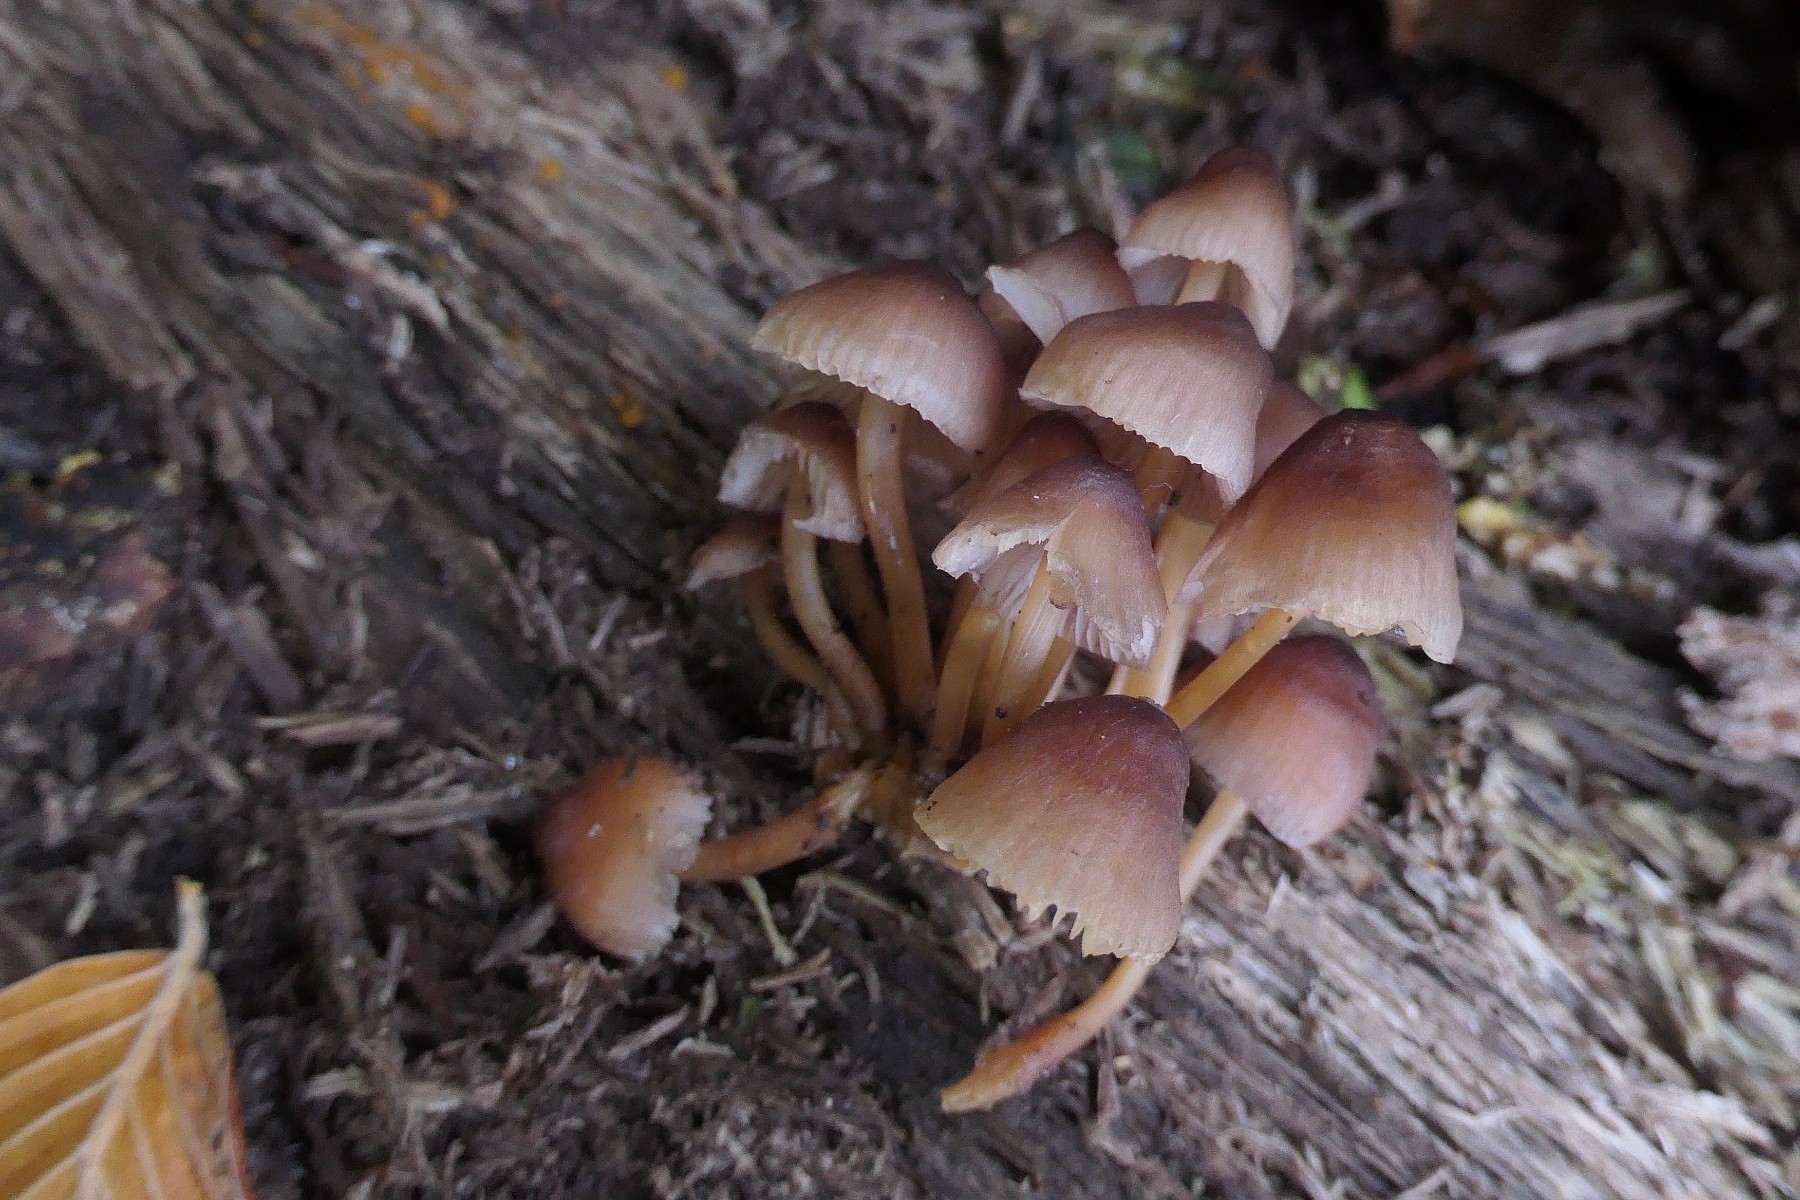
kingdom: Fungi
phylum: Basidiomycota
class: Agaricomycetes
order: Agaricales
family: Mycenaceae
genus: Mycena
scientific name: Mycena renati
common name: smuk huesvamp
